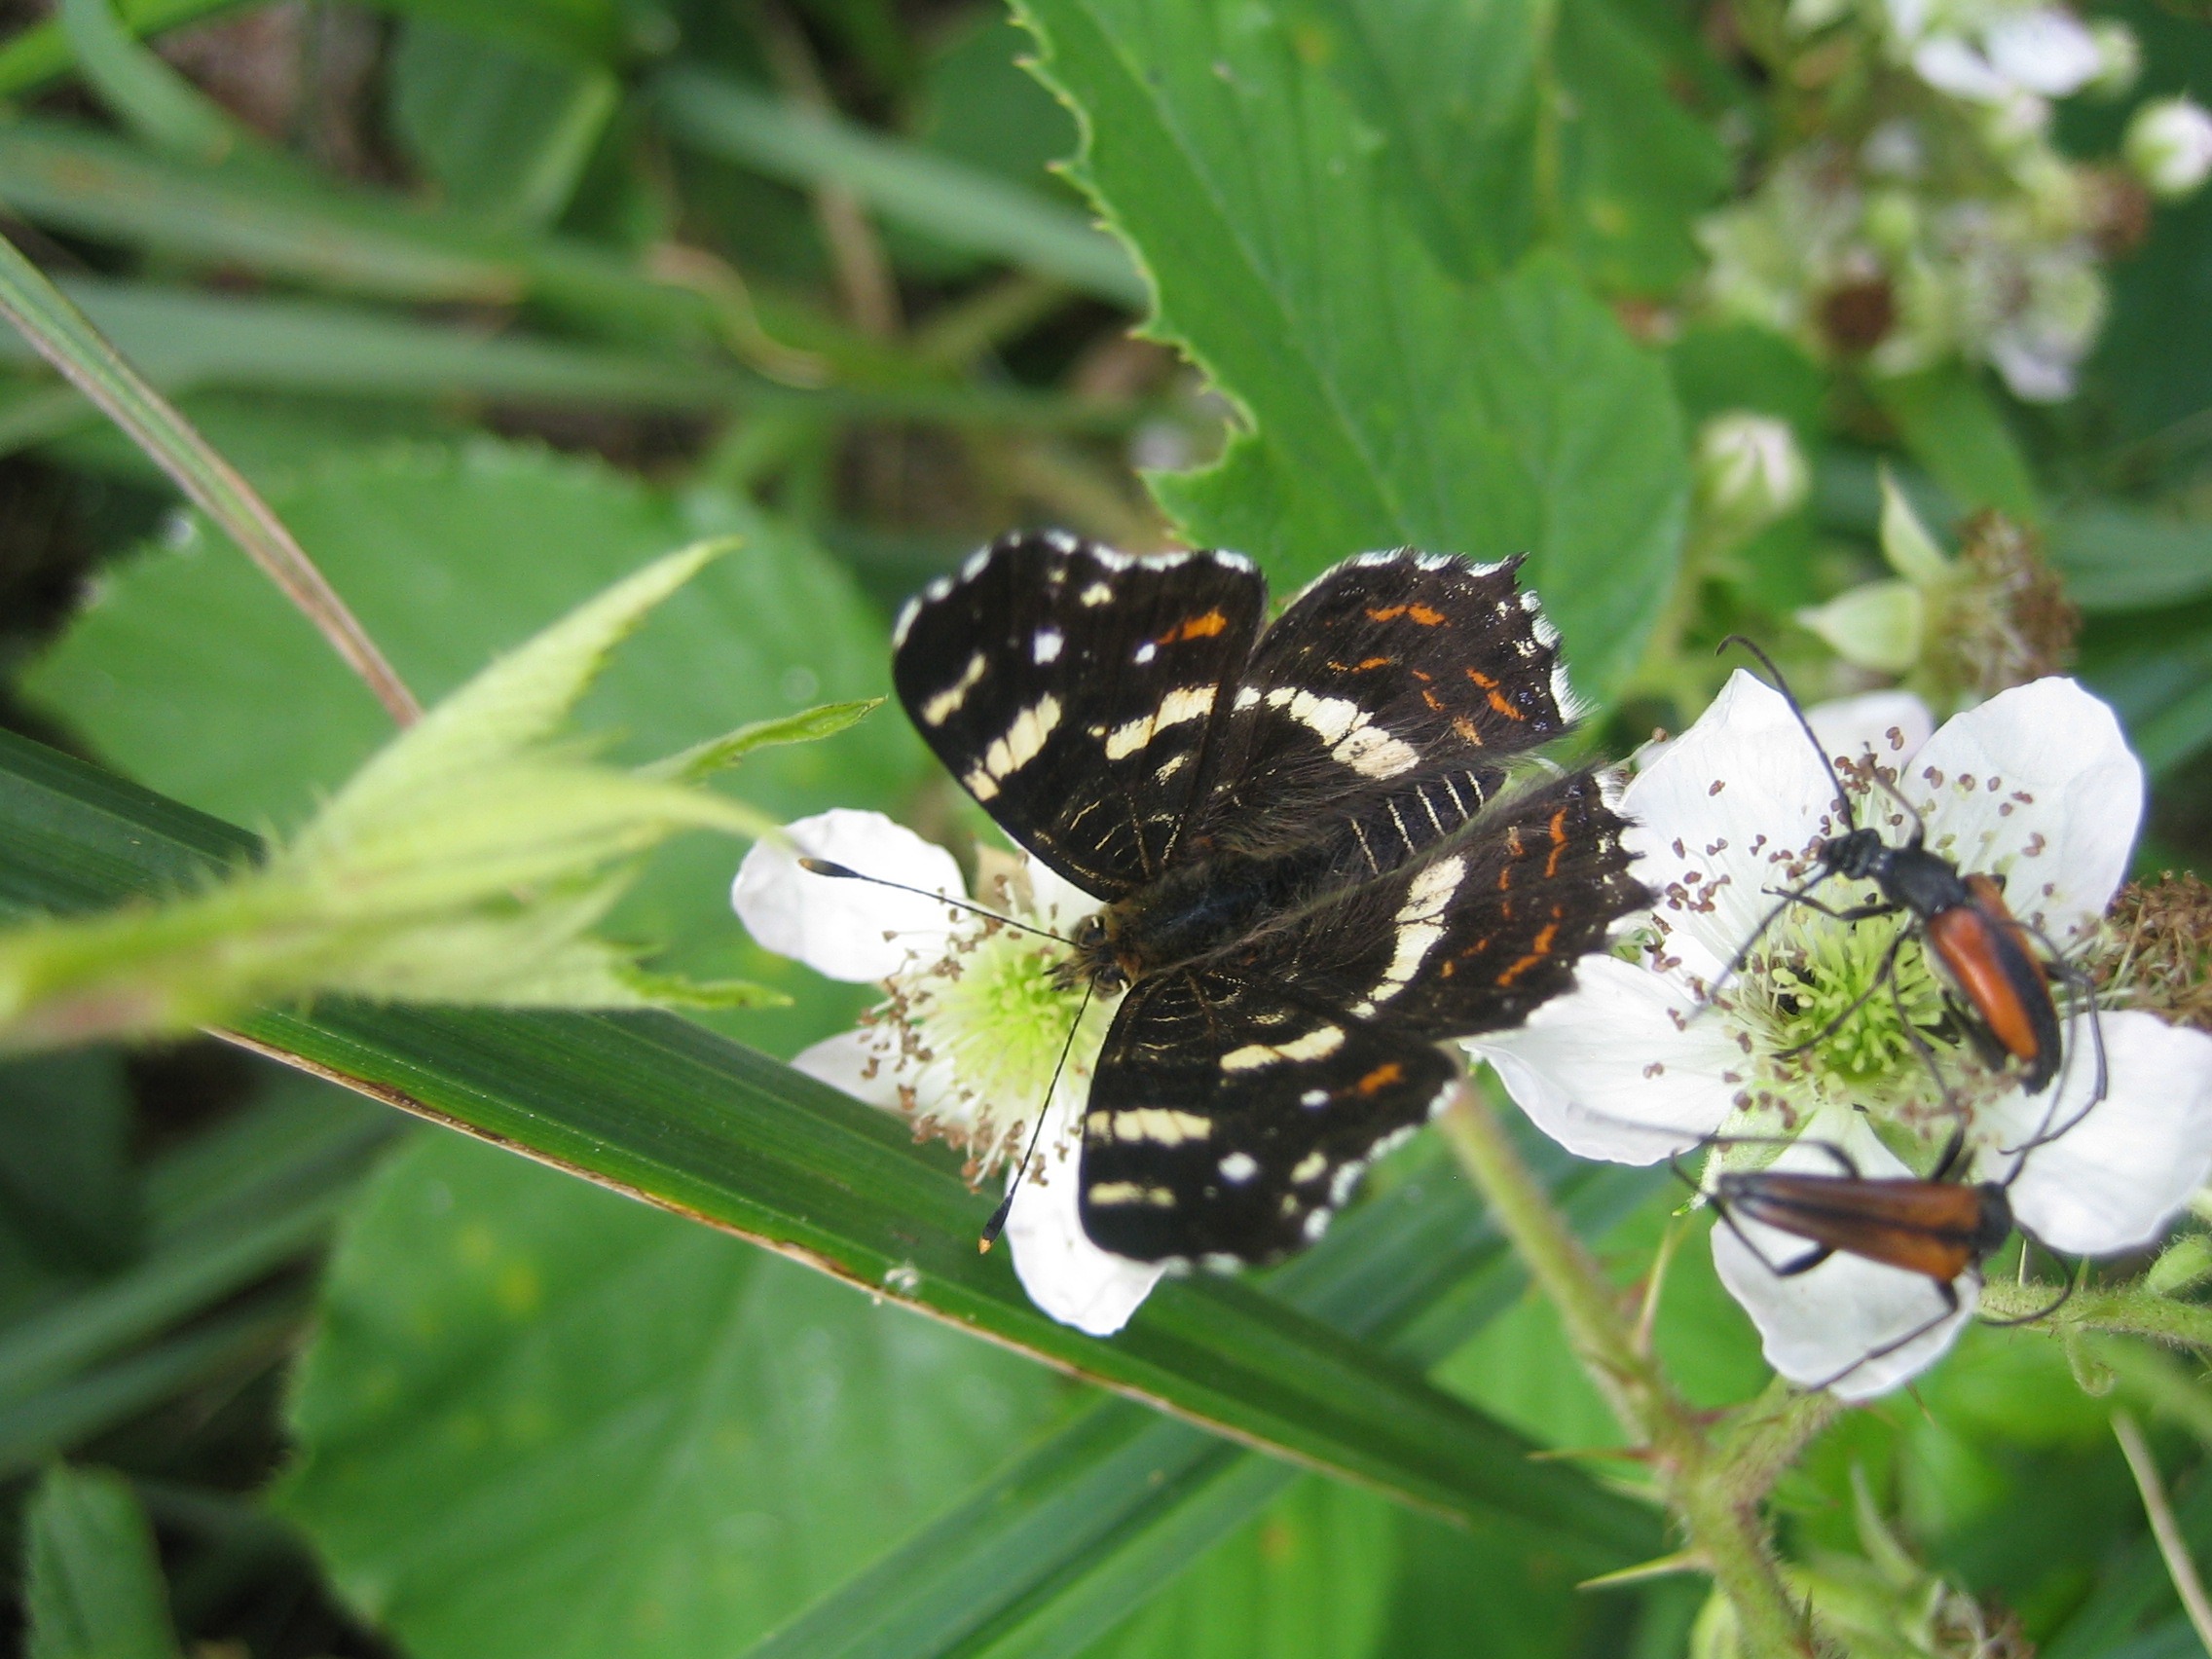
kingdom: Animalia
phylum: Arthropoda
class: Insecta
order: Lepidoptera
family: Nymphalidae
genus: Araschnia
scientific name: Araschnia levana
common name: Nældesommerfugl
